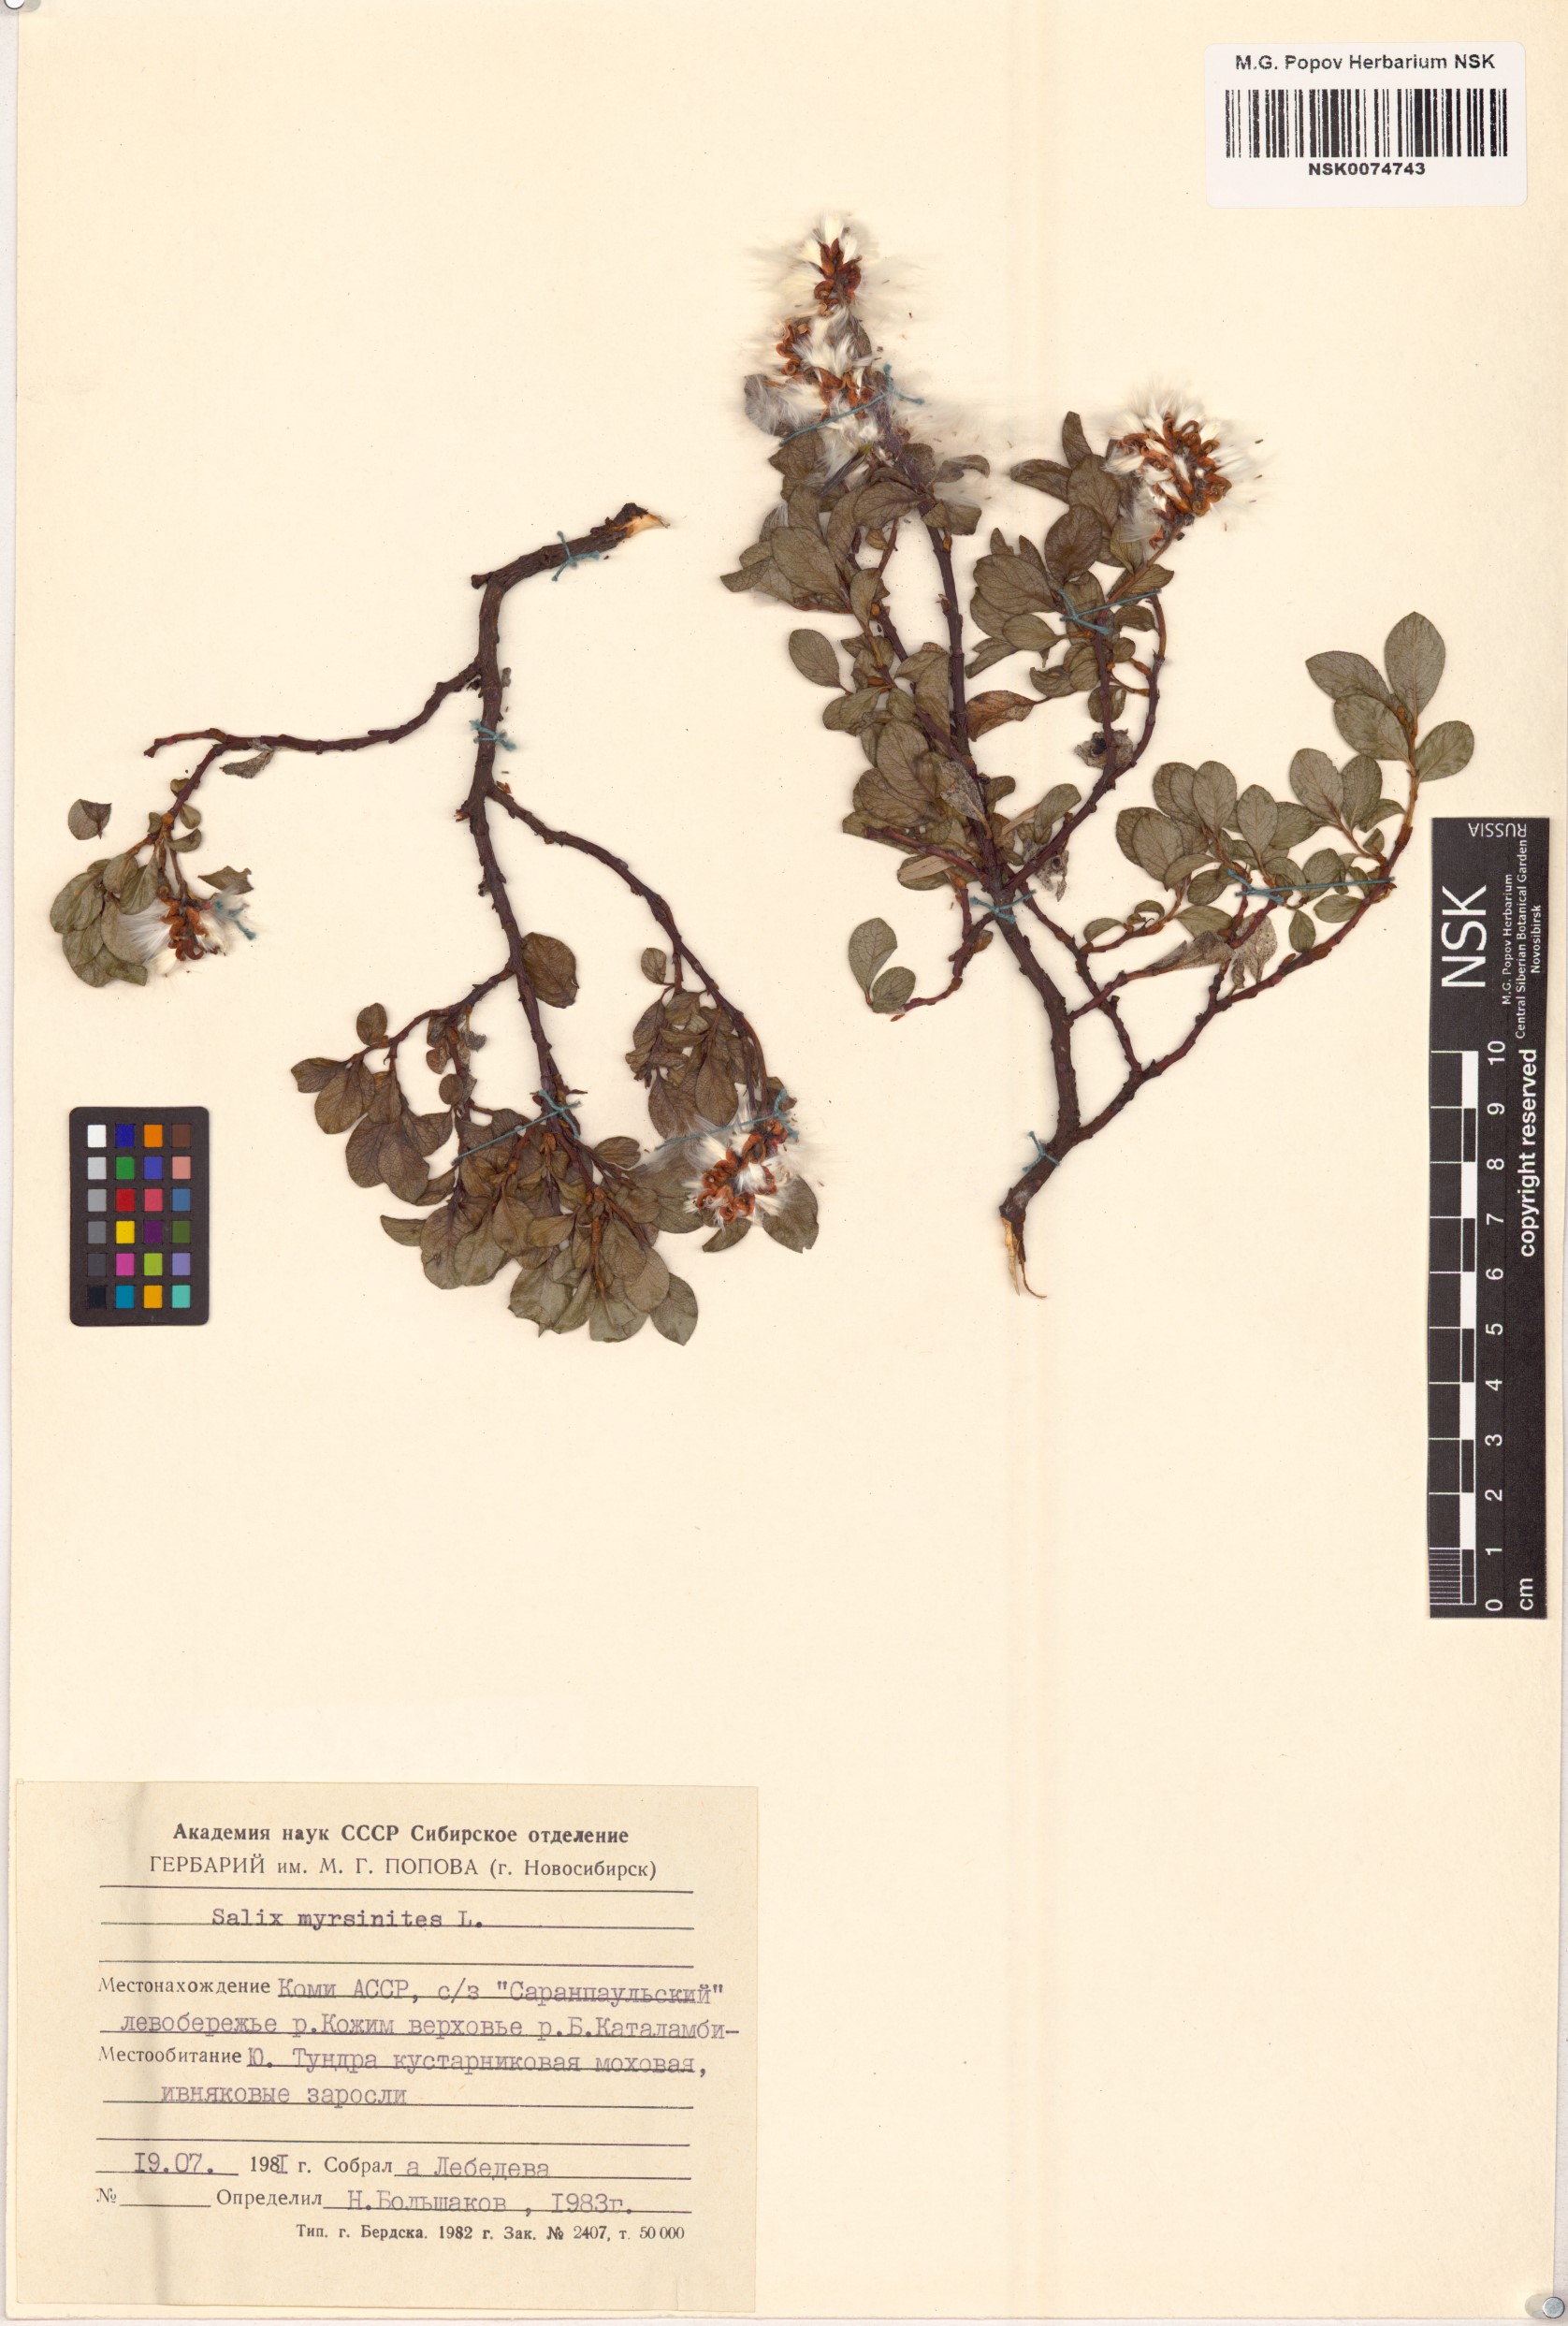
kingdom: Plantae
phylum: Tracheophyta
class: Magnoliopsida
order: Malpighiales
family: Salicaceae
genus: Salix
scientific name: Salix myrsinites
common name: Myrtle willow
